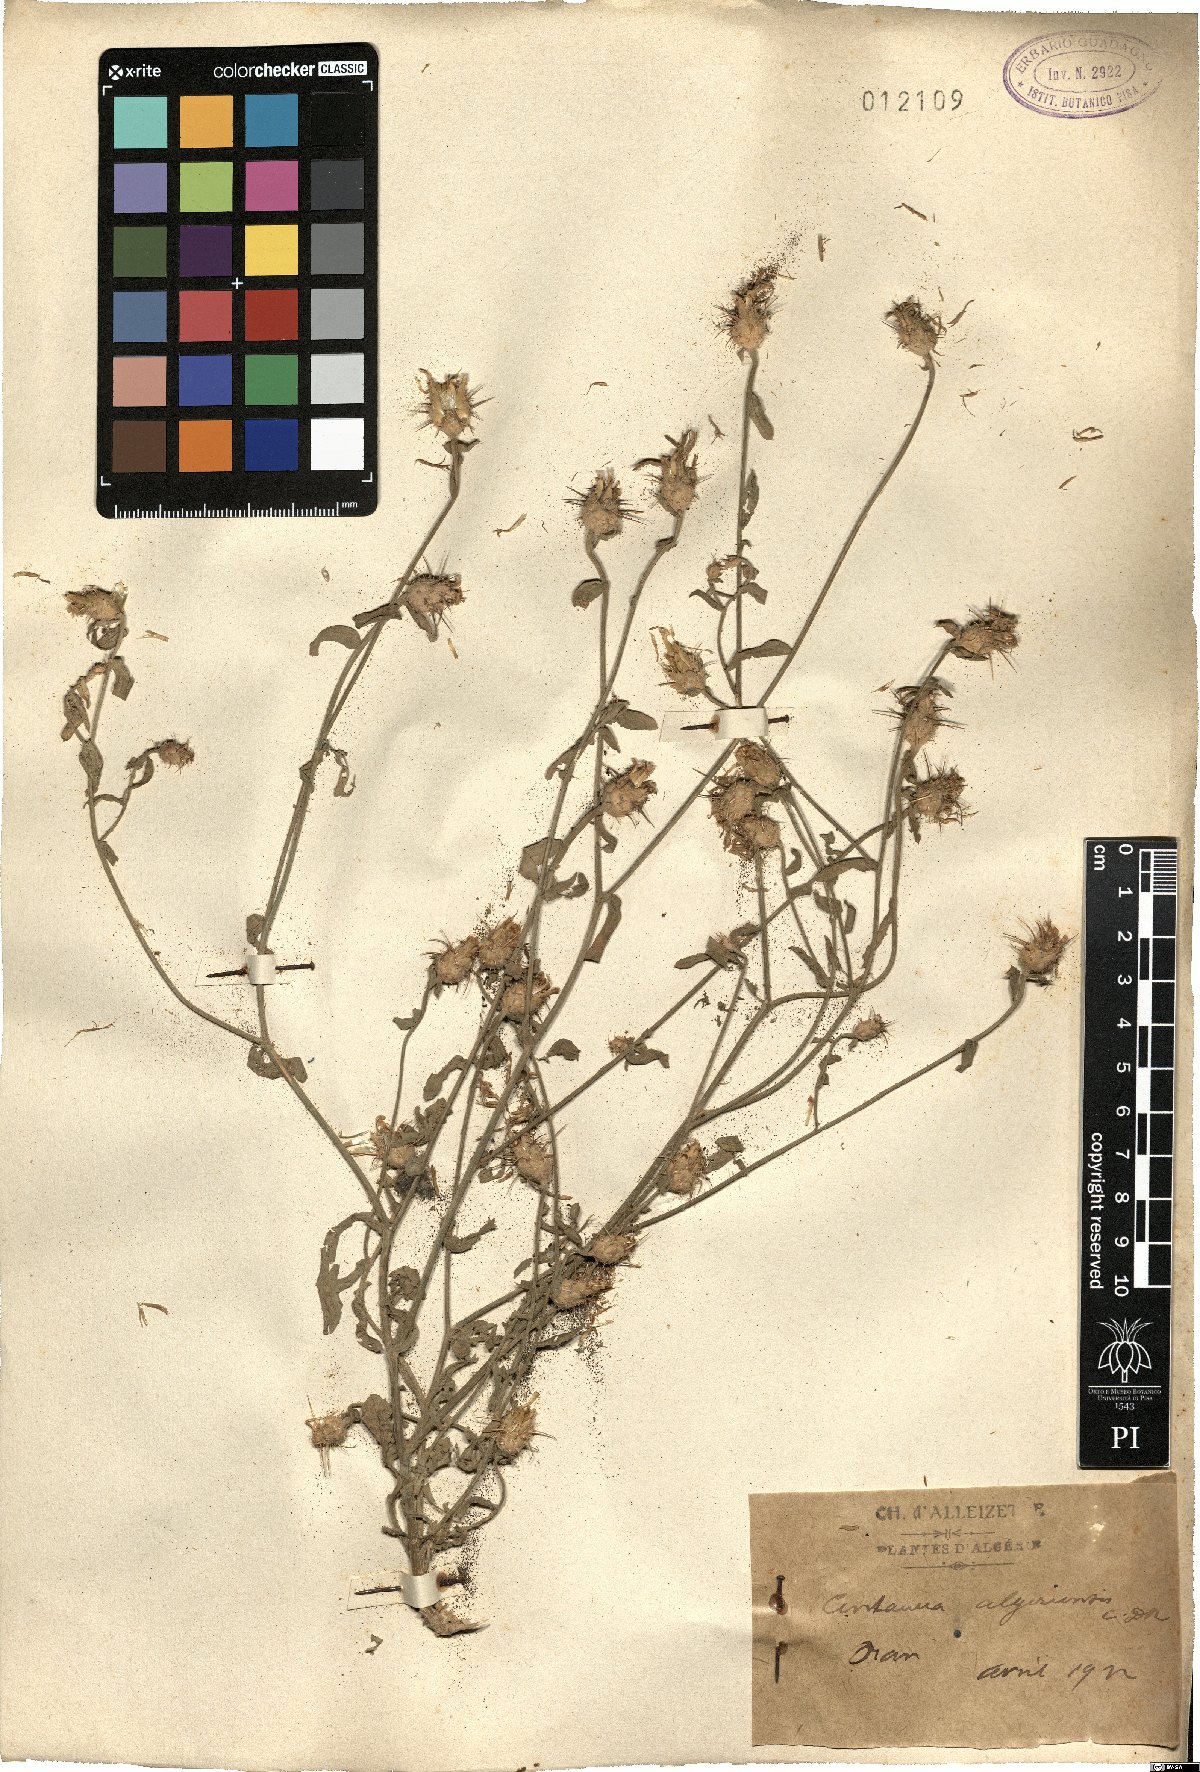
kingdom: Plantae
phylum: Tracheophyta
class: Magnoliopsida
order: Asterales
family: Asteraceae
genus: Centaurea
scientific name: Centaurea diluta
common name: Lesser star-thistle
